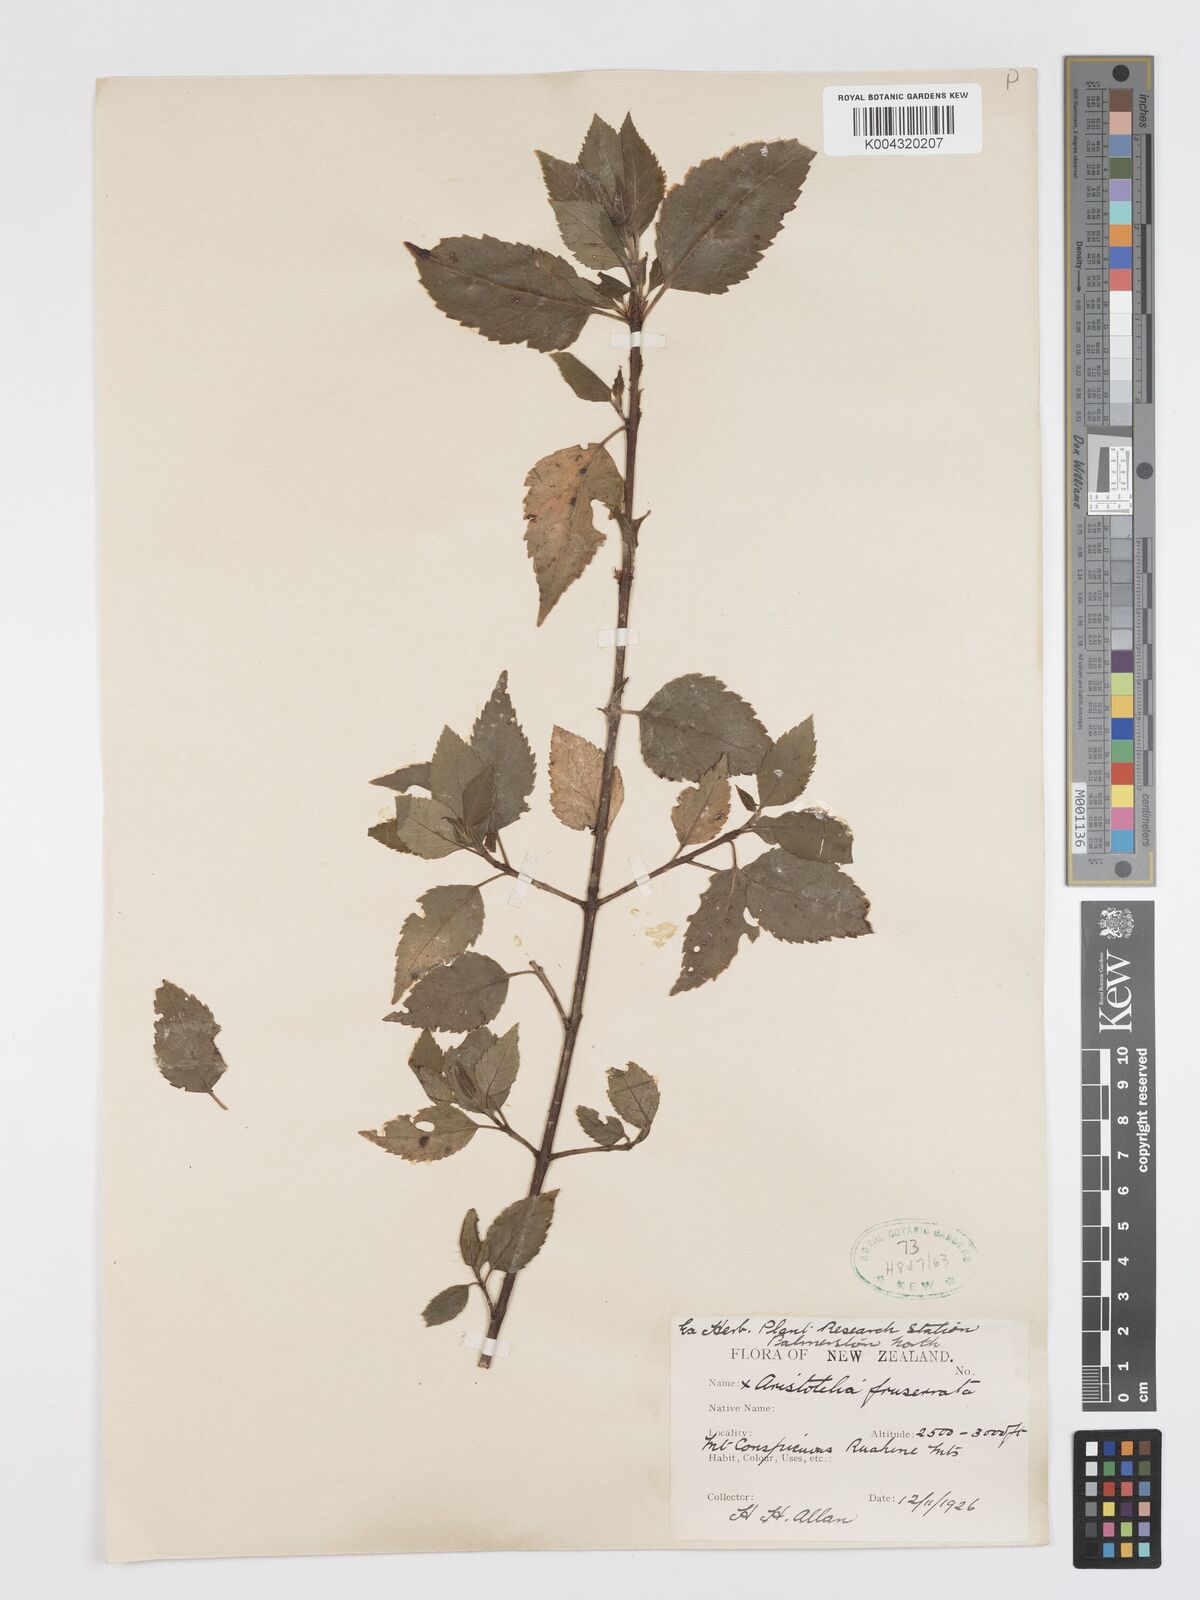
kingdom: Plantae
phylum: Tracheophyta
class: Magnoliopsida
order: Oxalidales
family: Elaeocarpaceae
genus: Aristotelia
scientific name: Aristotelia fruticosa
